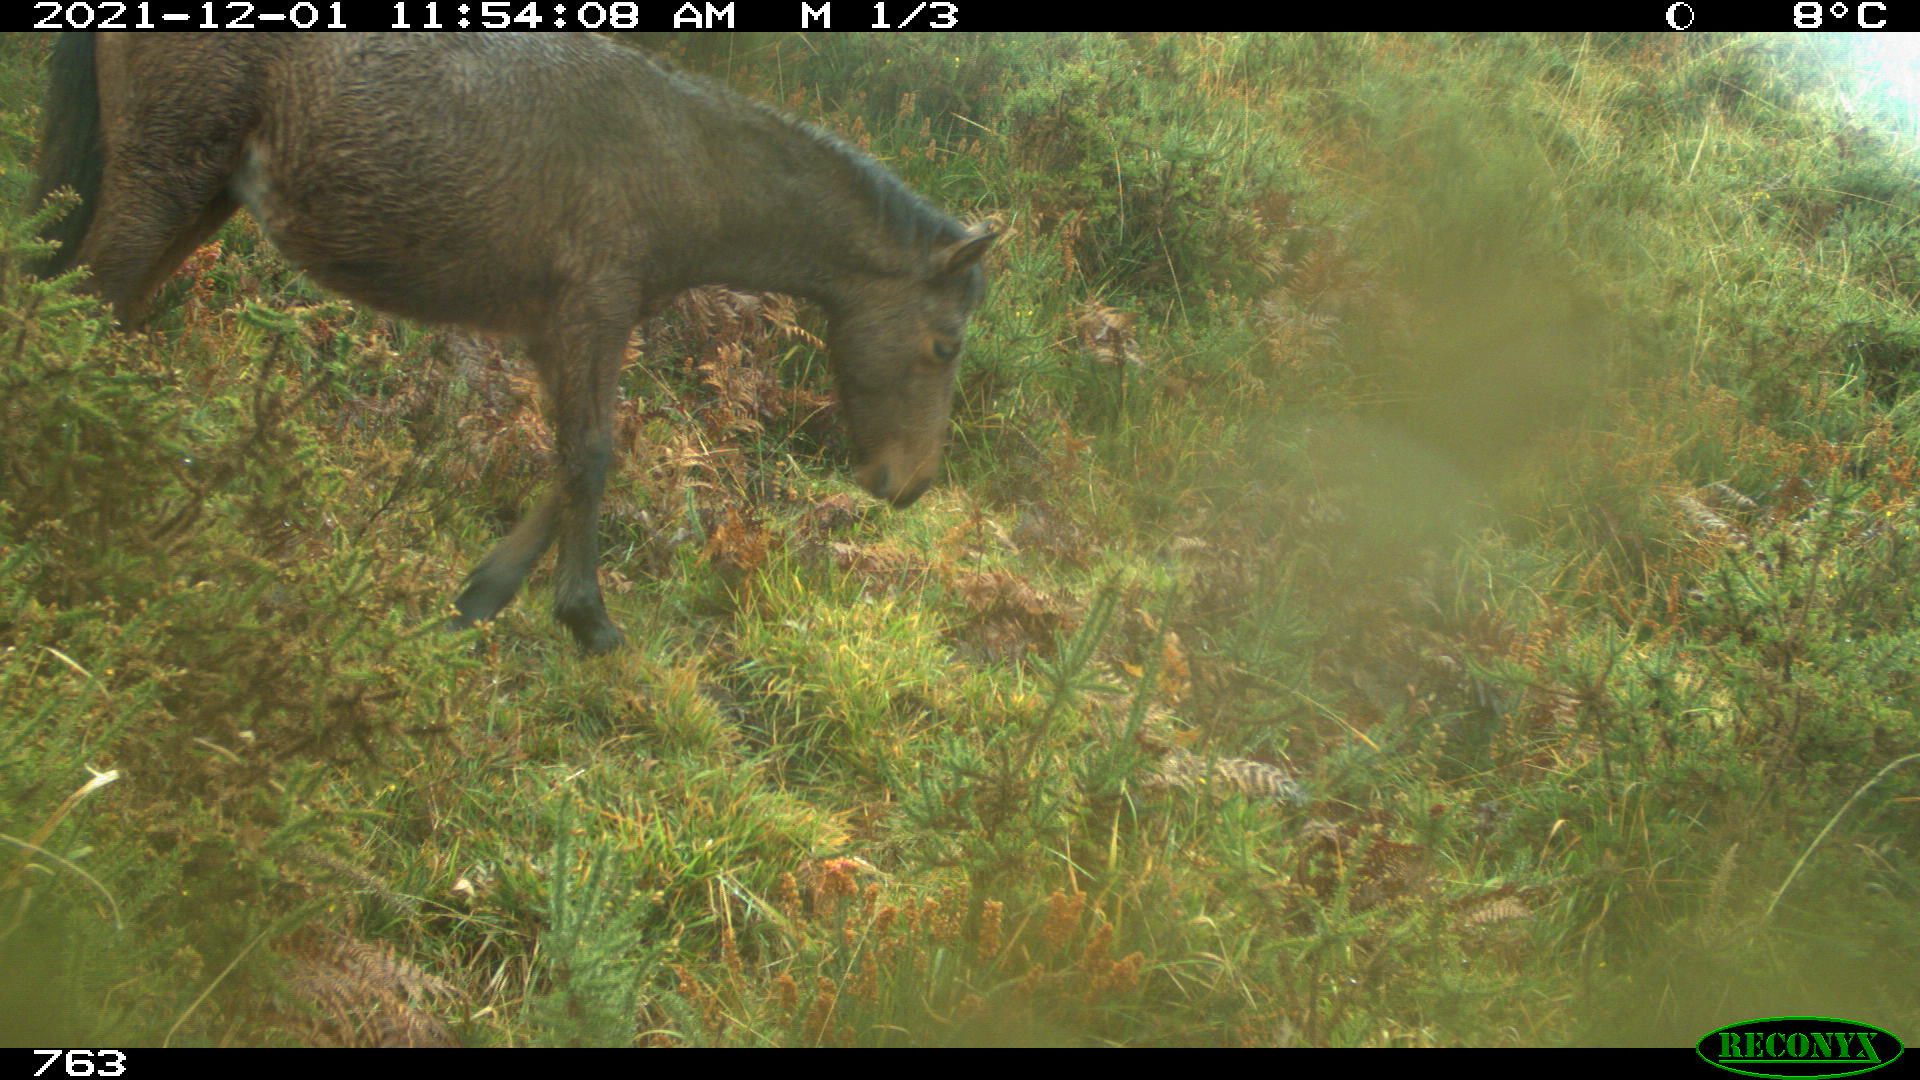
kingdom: Animalia
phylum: Chordata
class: Mammalia
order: Perissodactyla
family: Equidae
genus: Equus
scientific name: Equus caballus
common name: Horse
